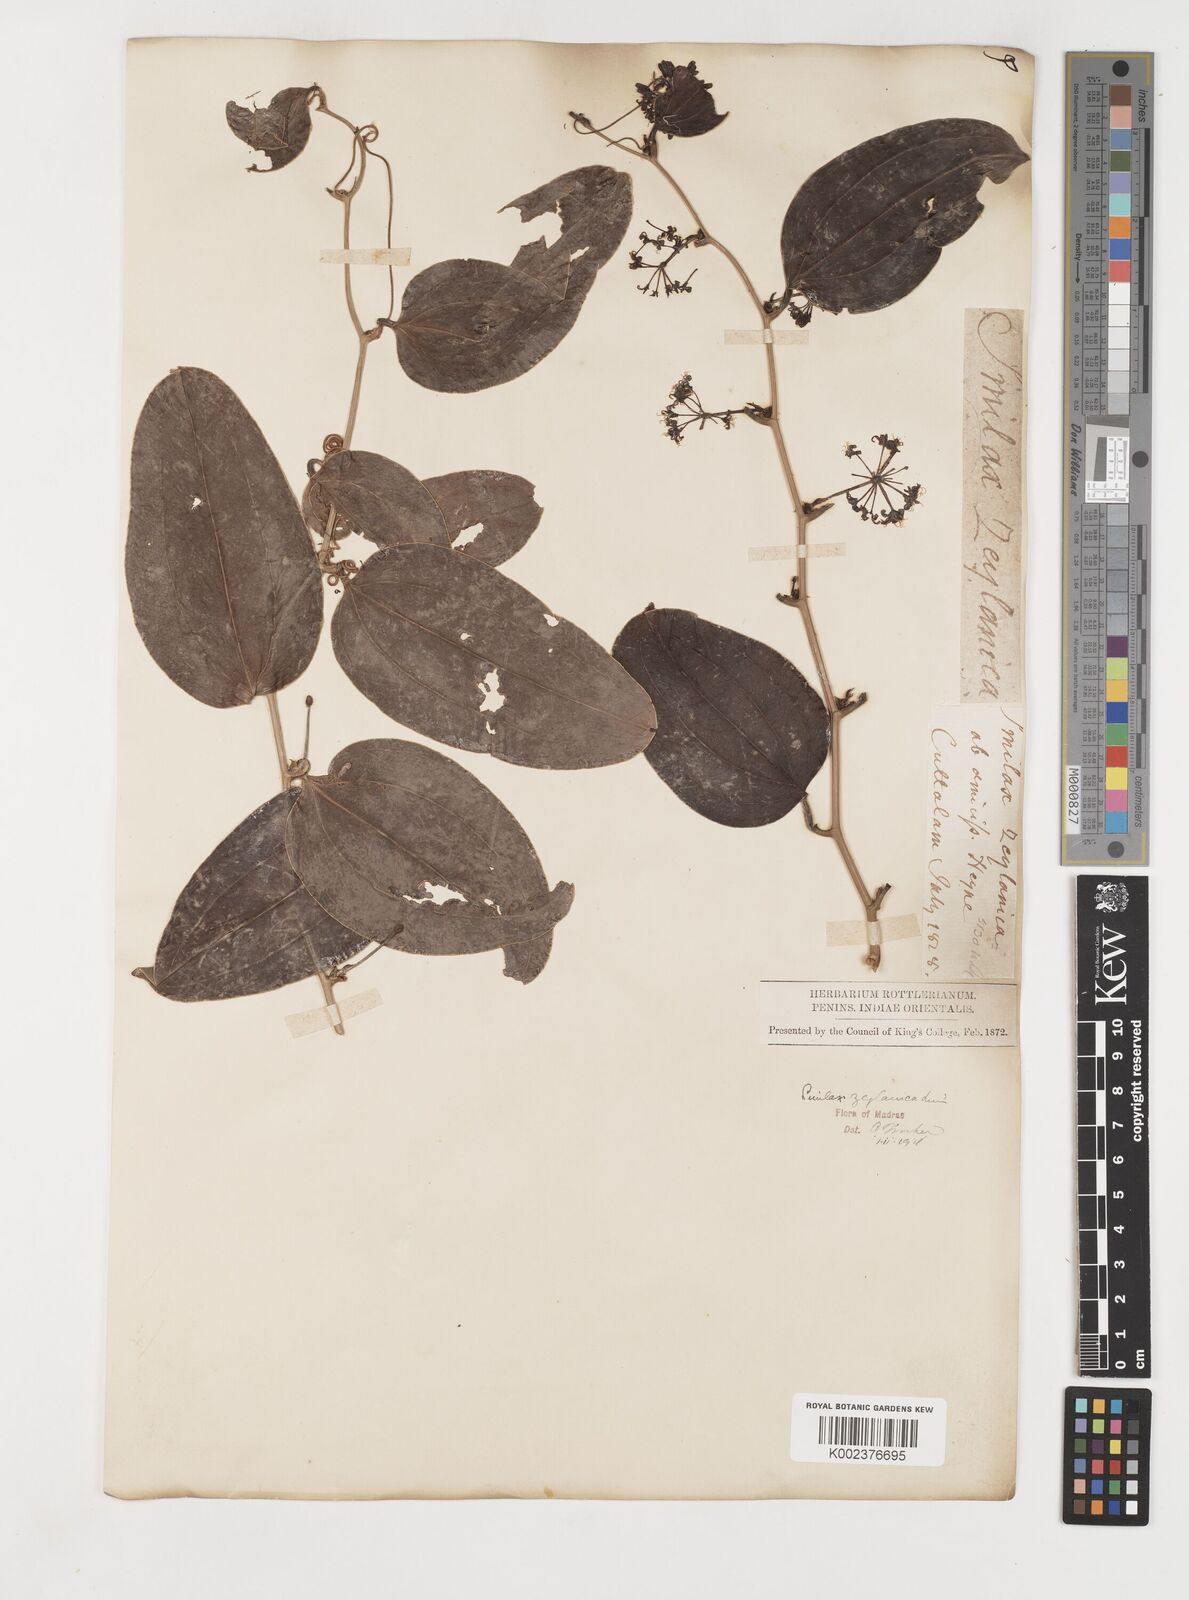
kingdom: Plantae
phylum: Tracheophyta
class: Liliopsida
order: Liliales
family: Smilacaceae
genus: Smilax
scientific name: Smilax zeylanica
